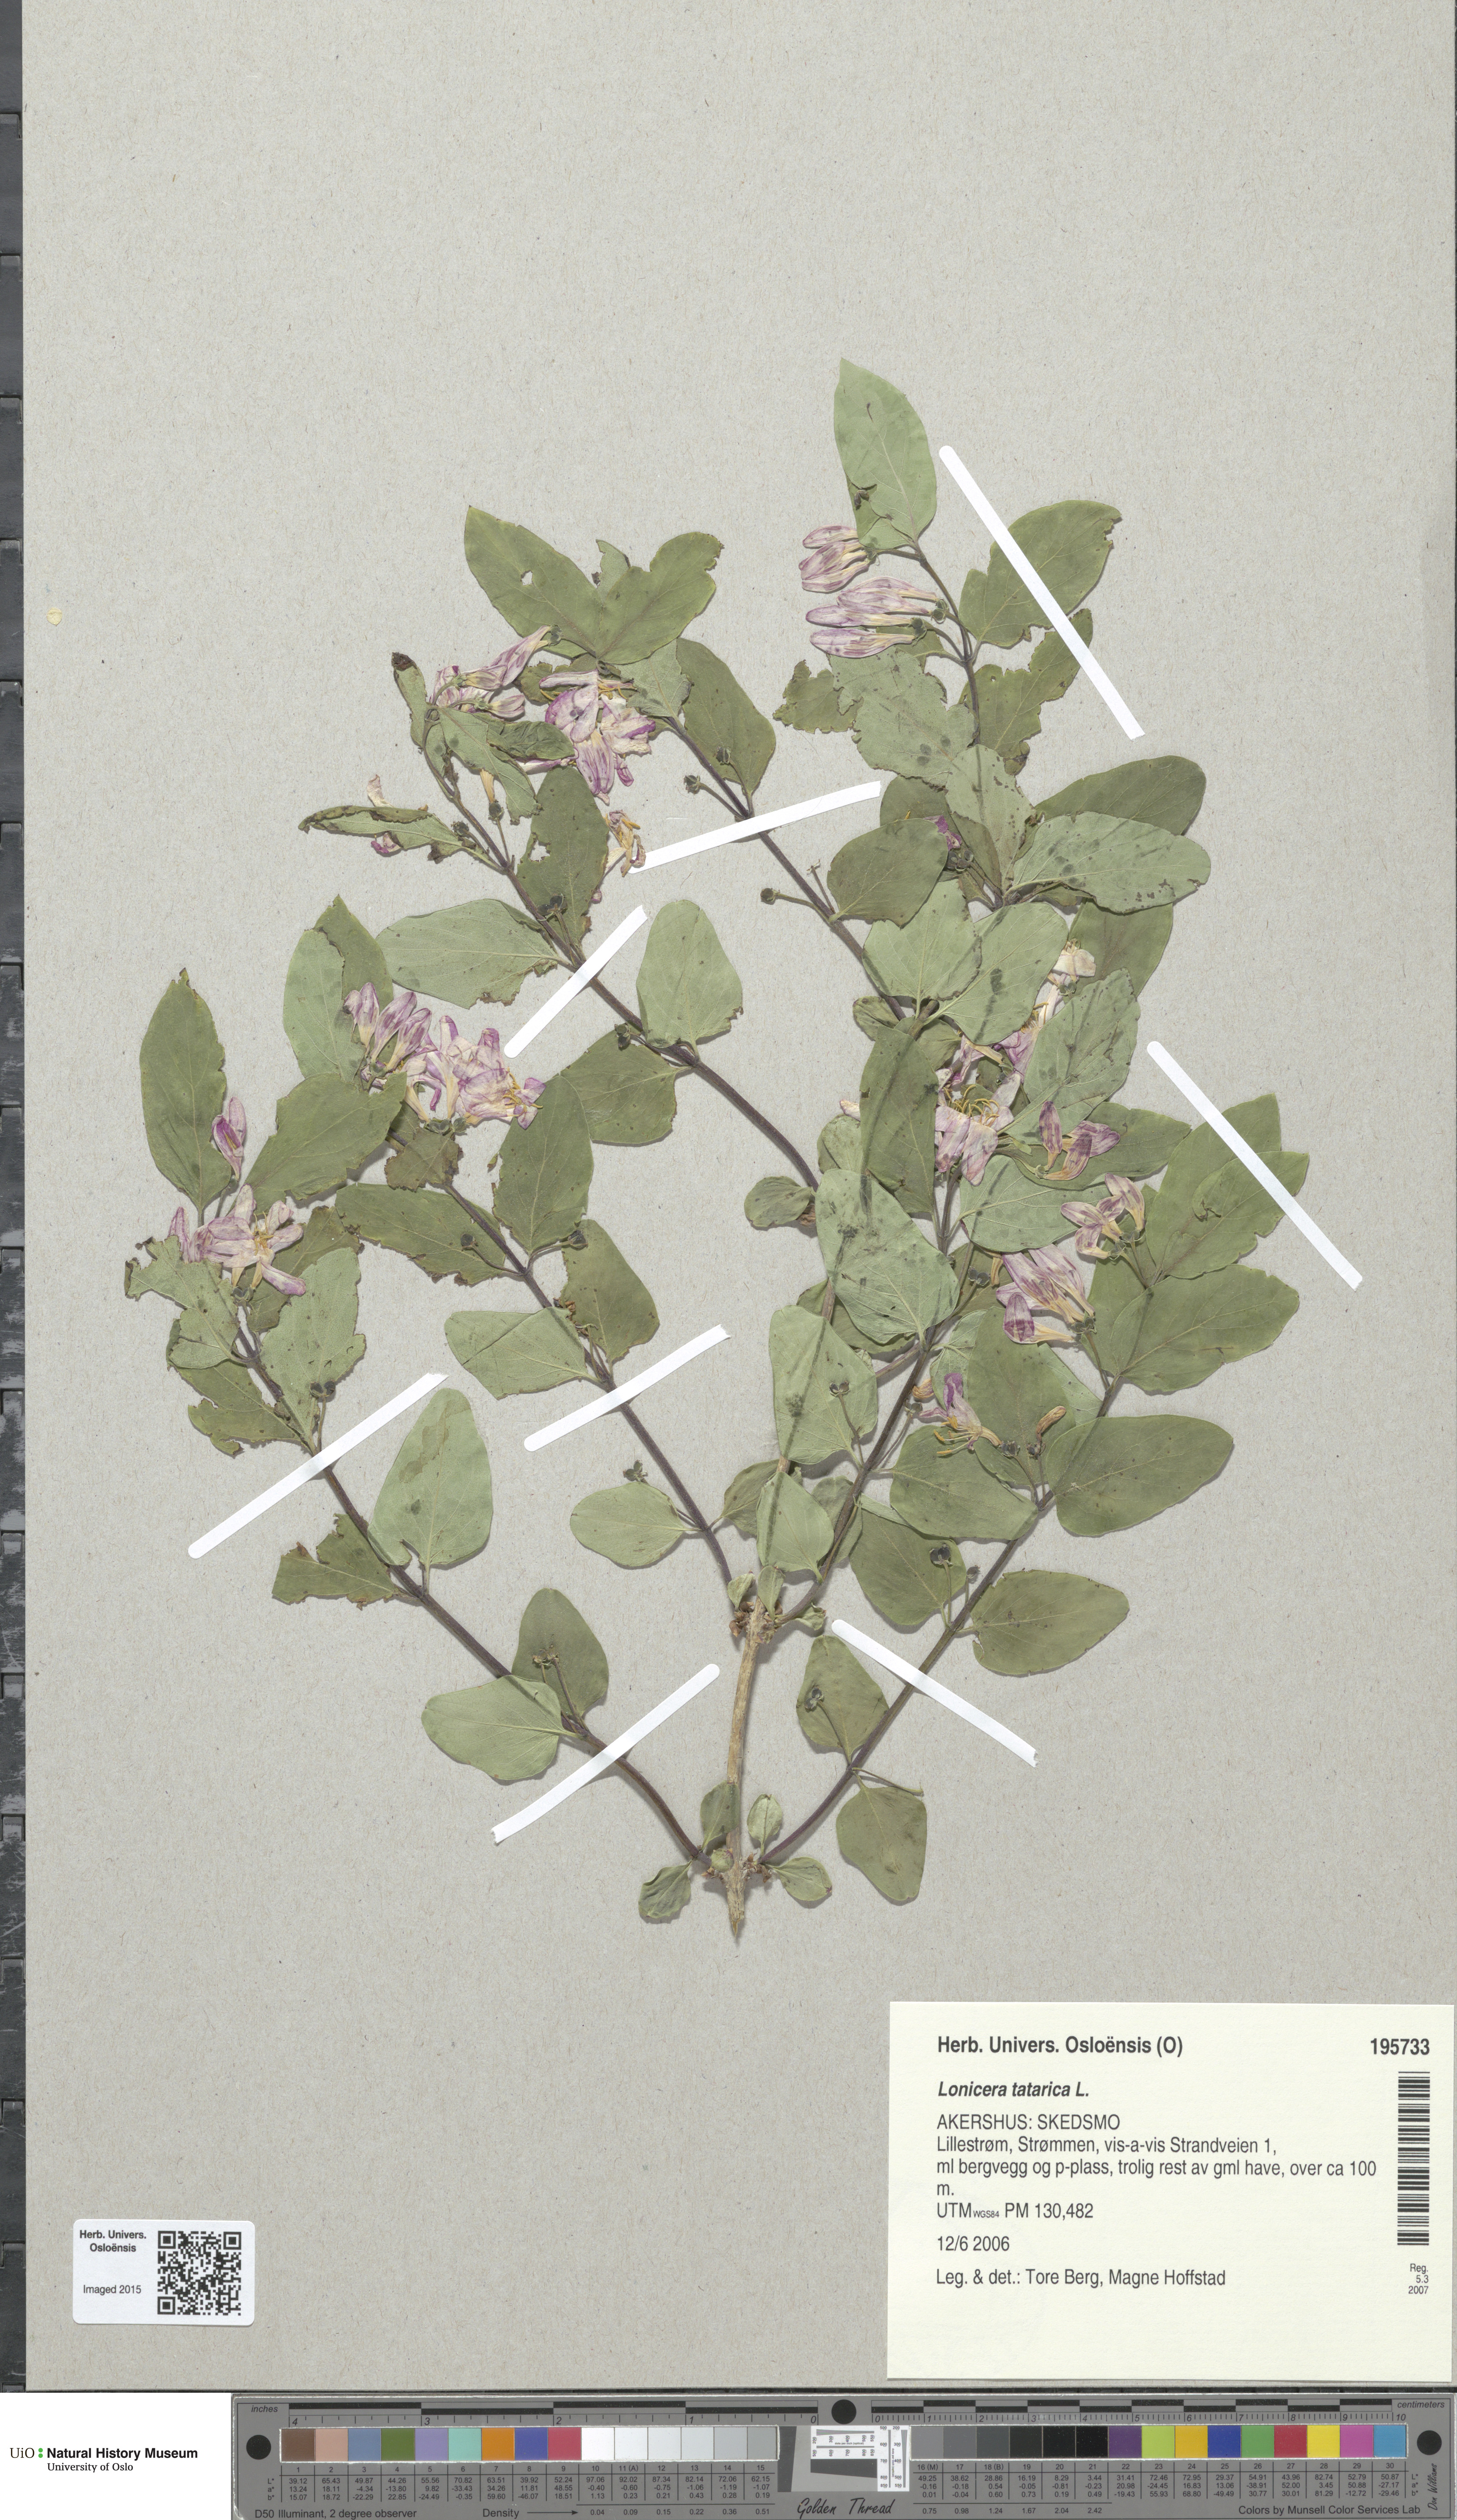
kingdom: Plantae
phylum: Tracheophyta
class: Magnoliopsida
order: Dipsacales
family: Caprifoliaceae
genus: Lonicera
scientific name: Lonicera tatarica
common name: Tatarian honeysuckle
